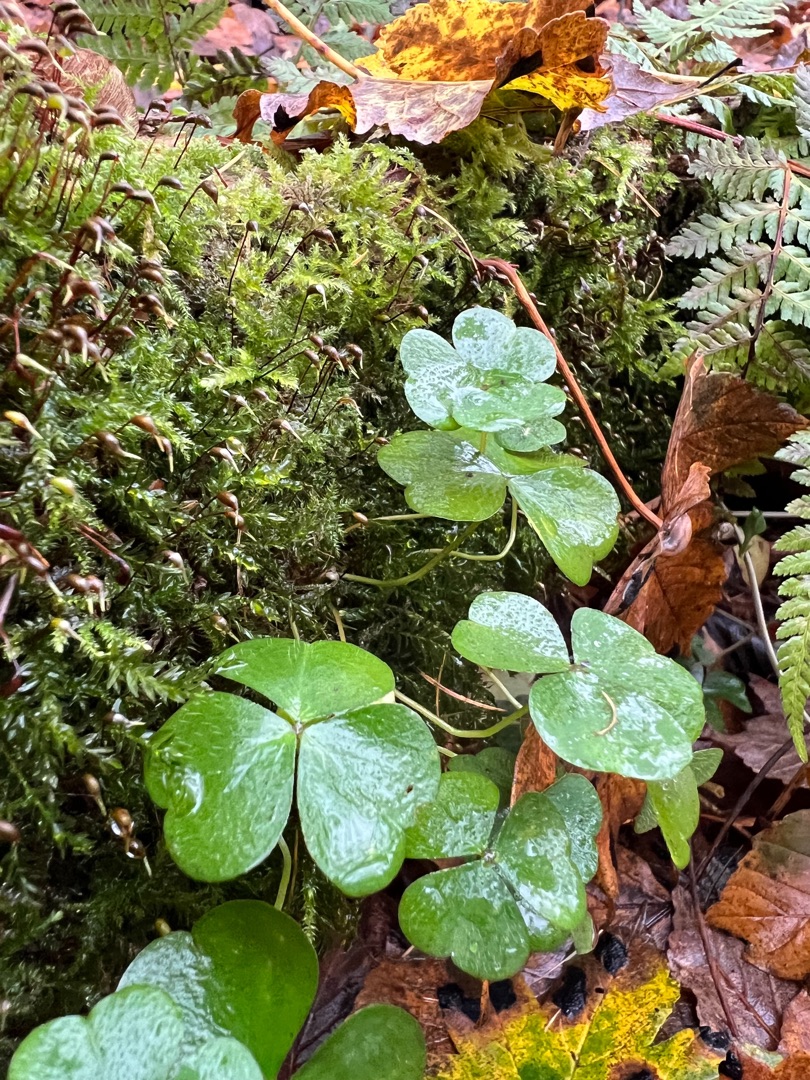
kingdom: Plantae
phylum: Tracheophyta
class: Magnoliopsida
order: Oxalidales
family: Oxalidaceae
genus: Oxalis
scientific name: Oxalis acetosella
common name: Skovsyre
